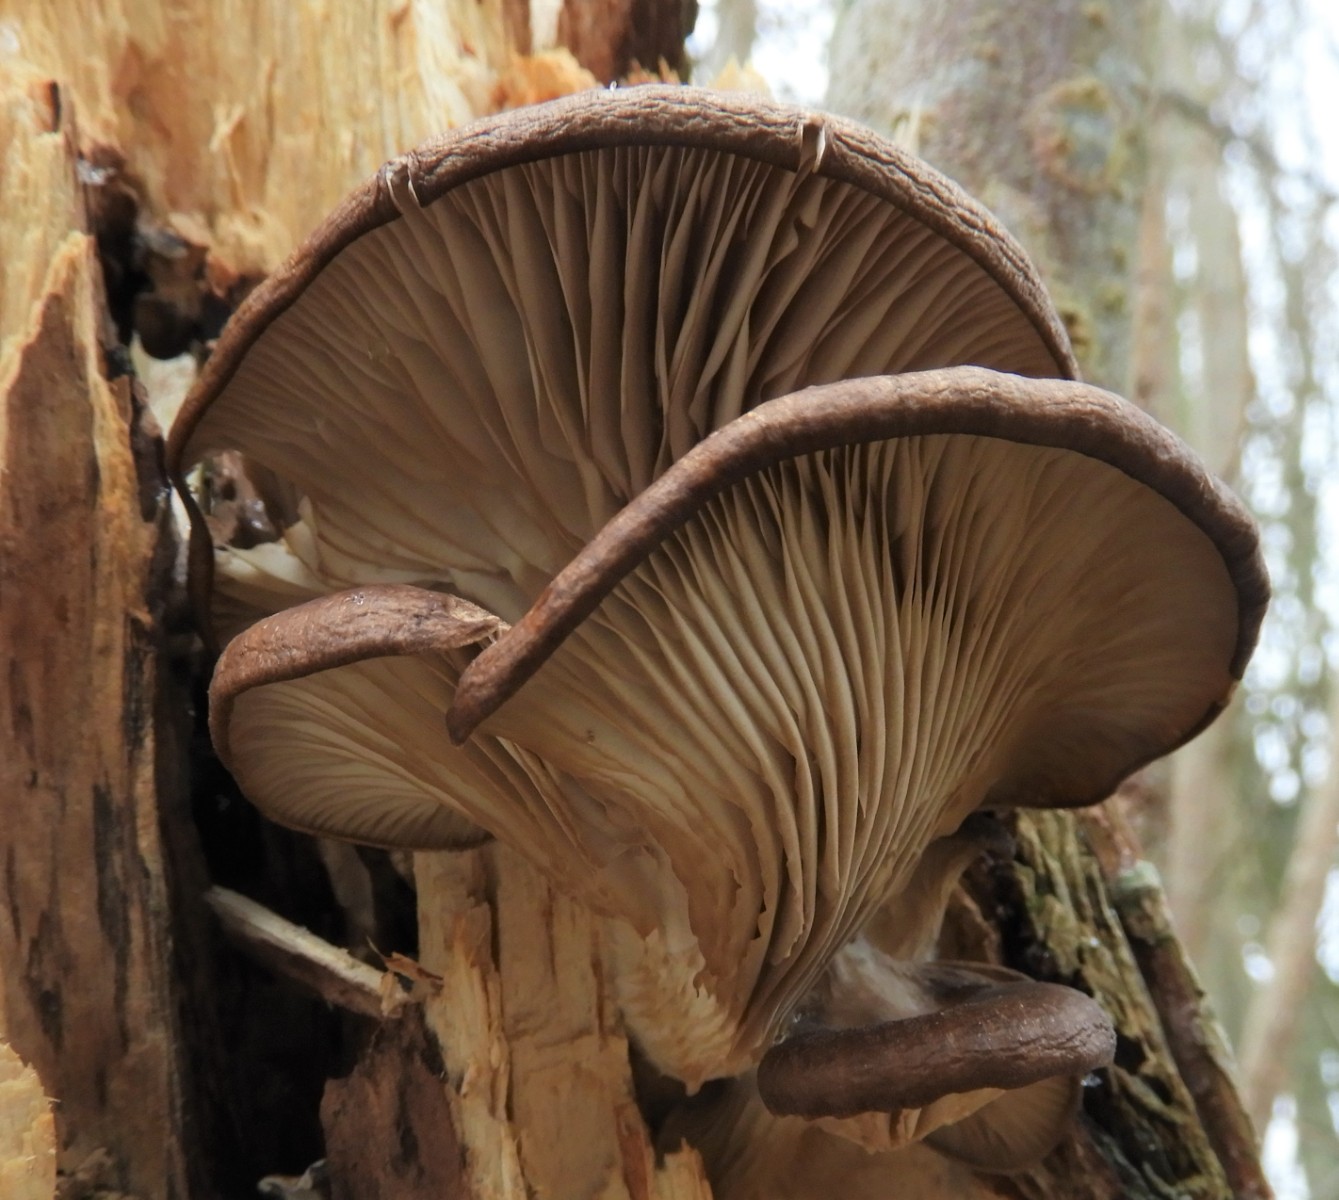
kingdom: Fungi
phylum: Basidiomycota
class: Agaricomycetes
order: Agaricales
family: Pleurotaceae
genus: Pleurotus
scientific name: Pleurotus ostreatus
